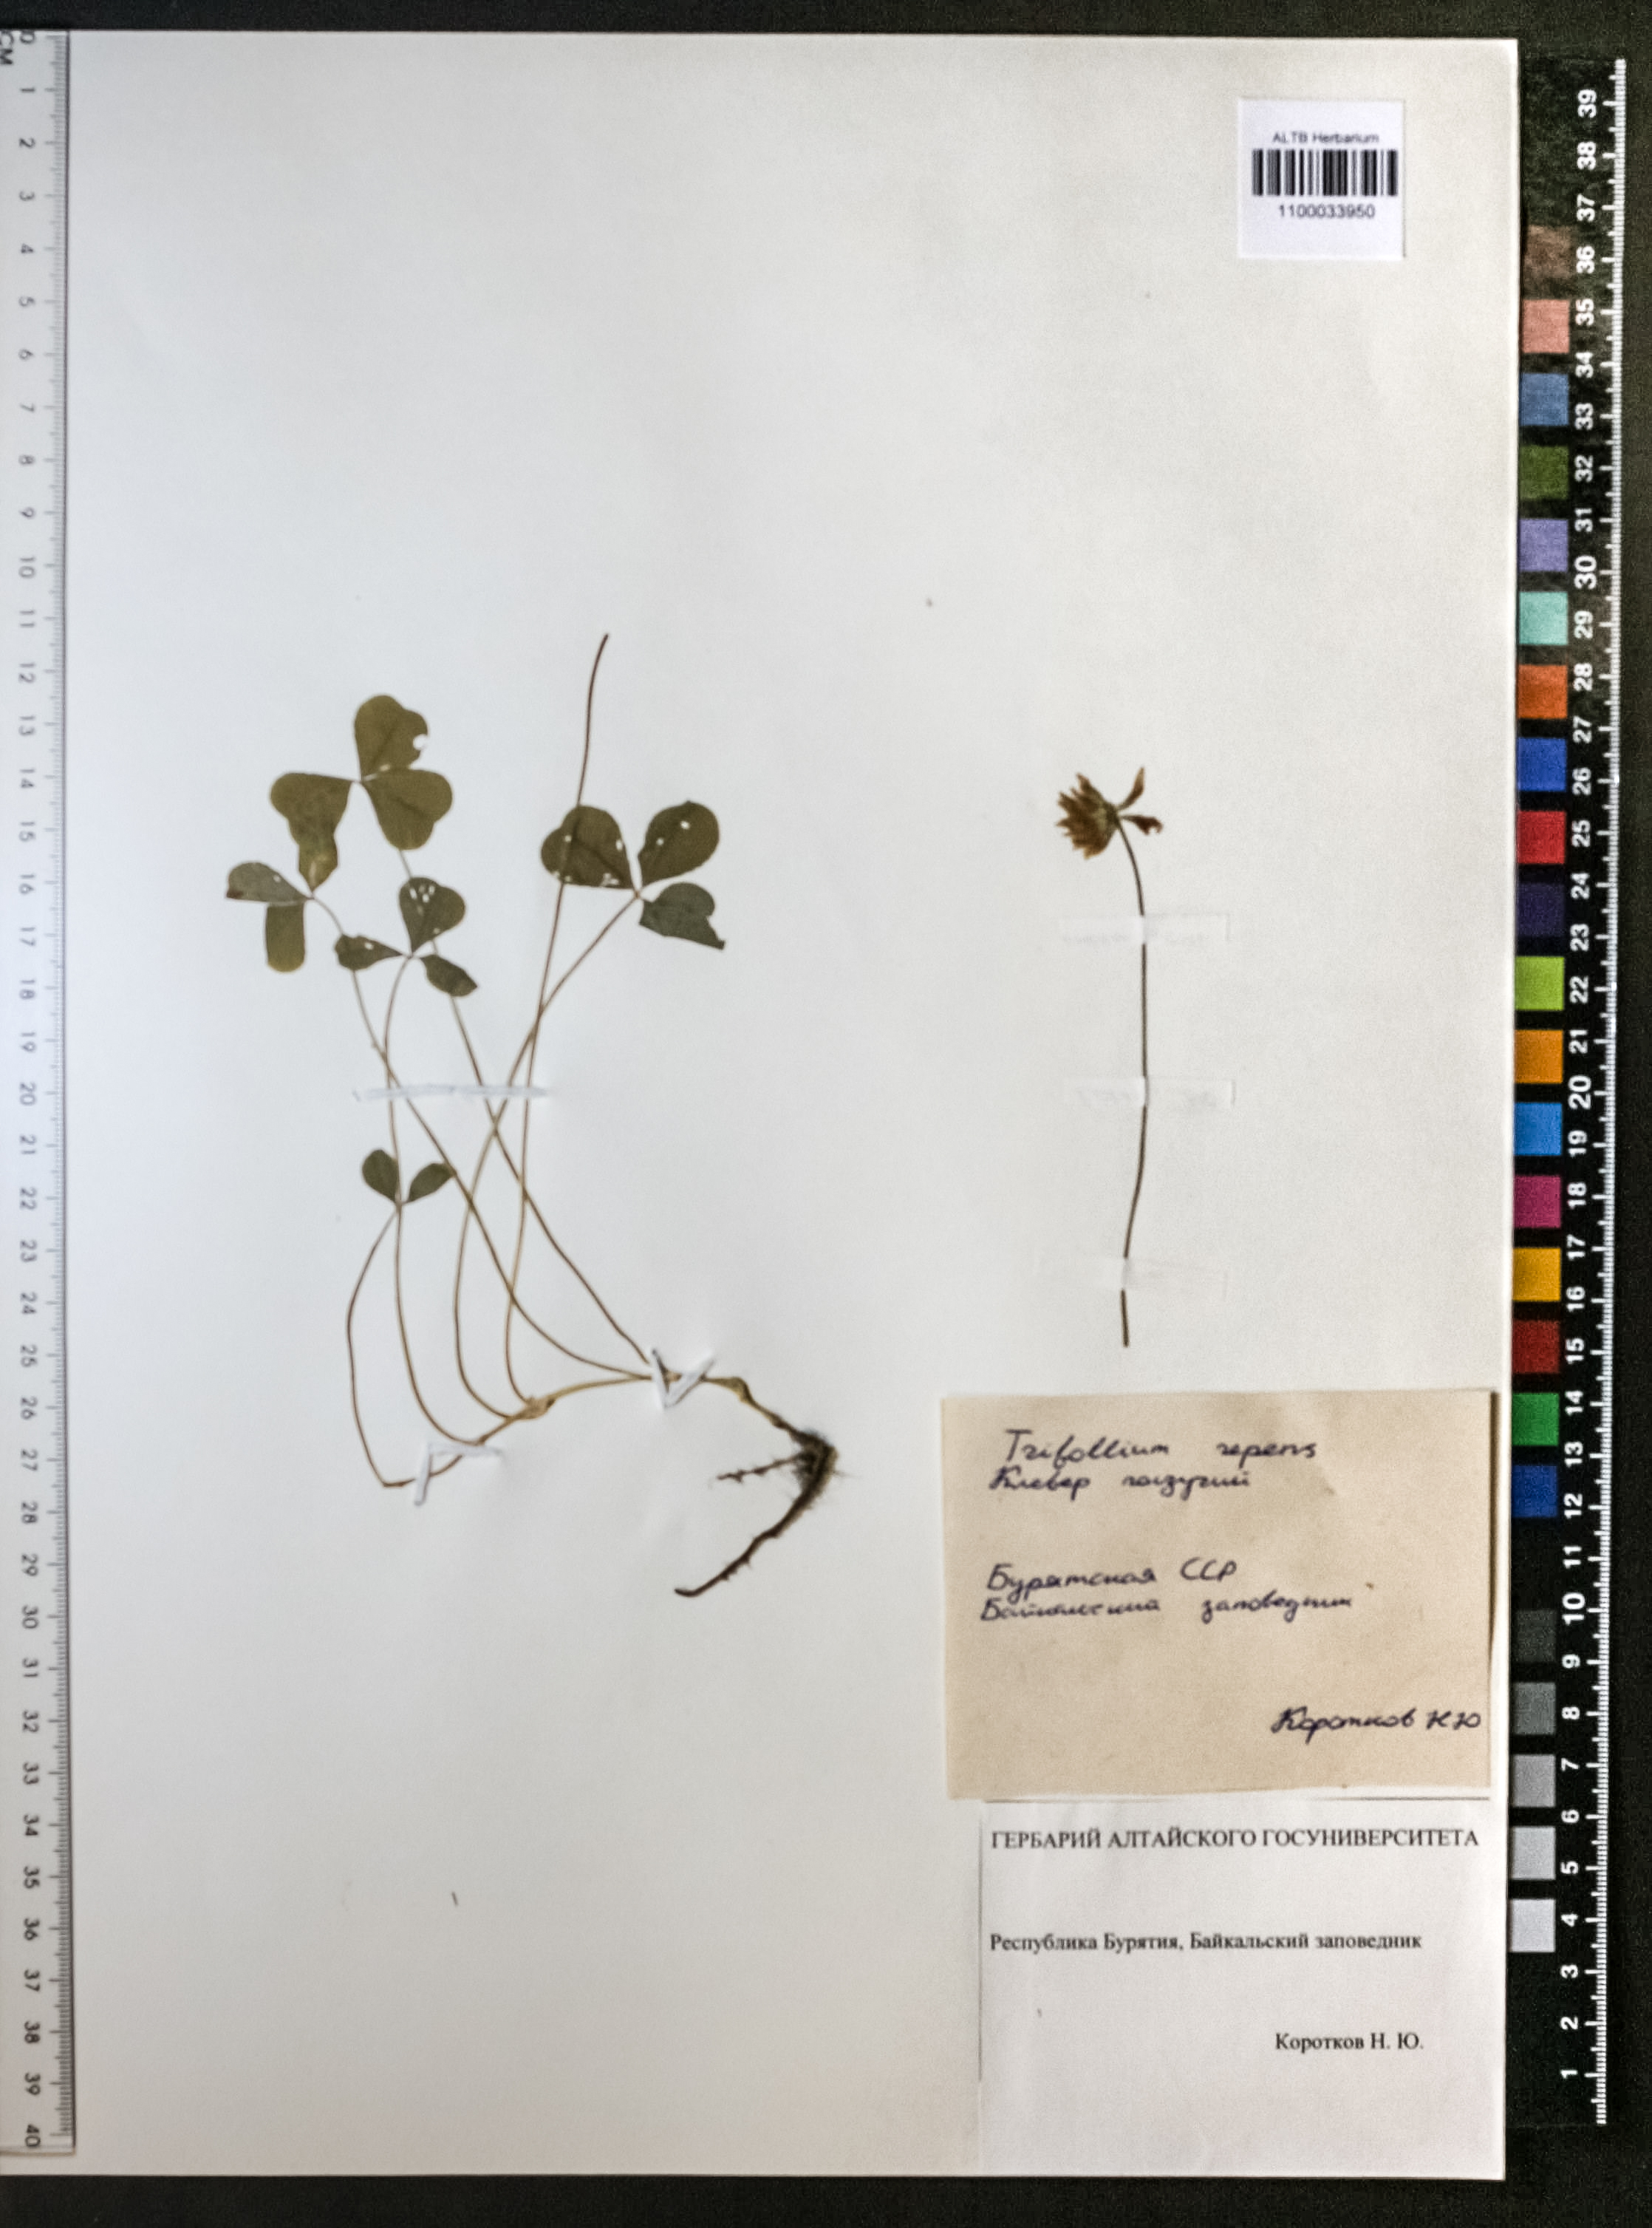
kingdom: Plantae
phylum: Tracheophyta
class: Magnoliopsida
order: Fabales
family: Fabaceae
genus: Trifolium
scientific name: Trifolium repens
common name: White clover
